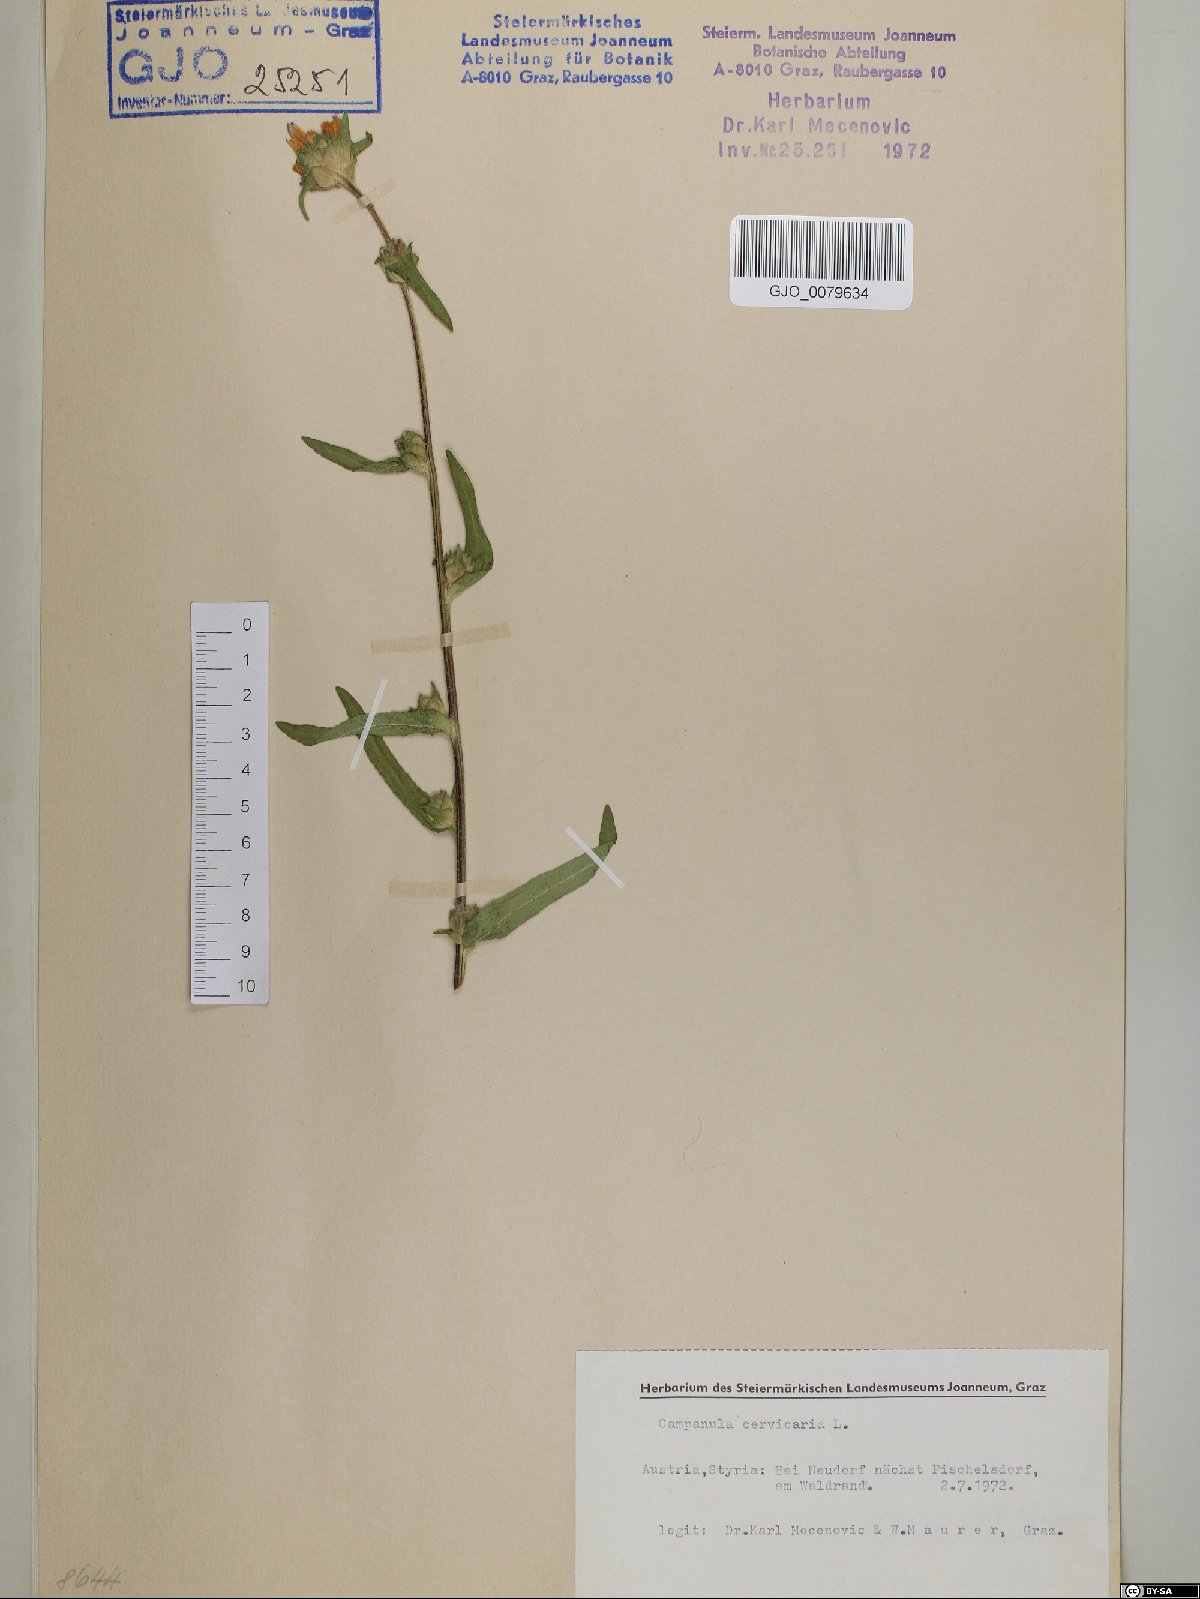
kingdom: Plantae
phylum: Tracheophyta
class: Magnoliopsida
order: Asterales
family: Campanulaceae
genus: Campanula
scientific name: Campanula cervicaria
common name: Bristly bellflower
